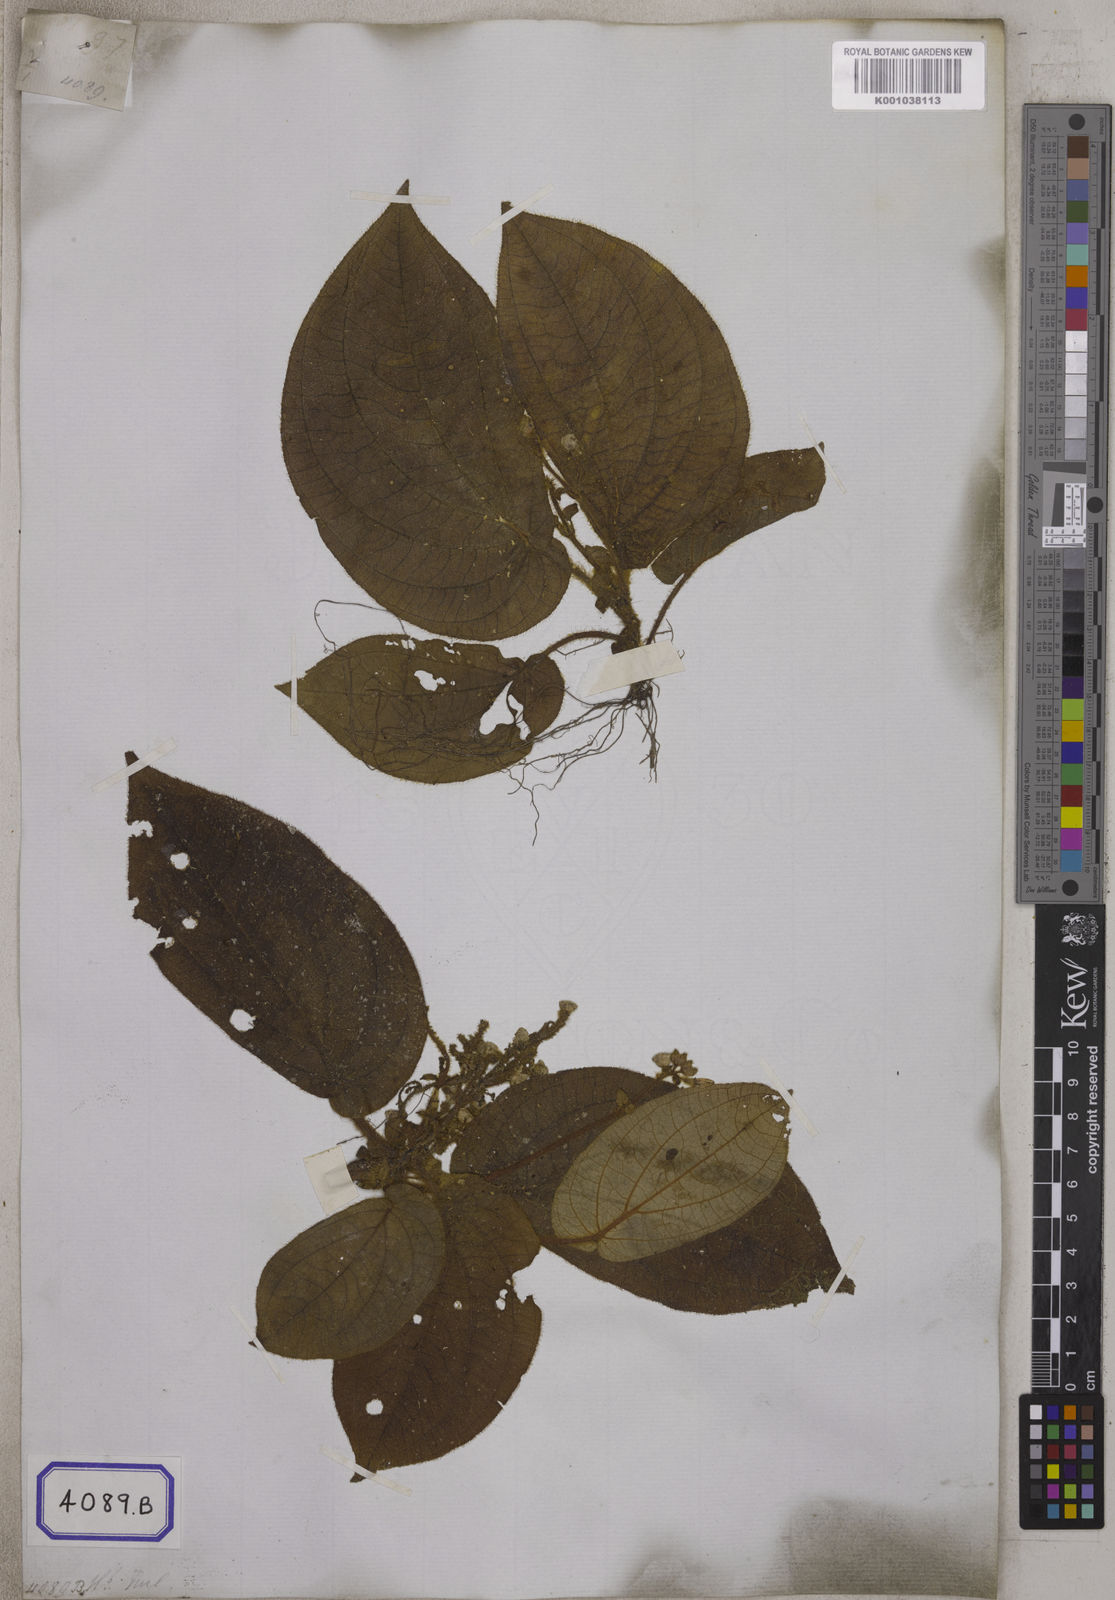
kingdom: Plantae
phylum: Tracheophyta
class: Magnoliopsida
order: Myrtales
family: Melastomataceae
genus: Sonerila
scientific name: Sonerila moluccana
